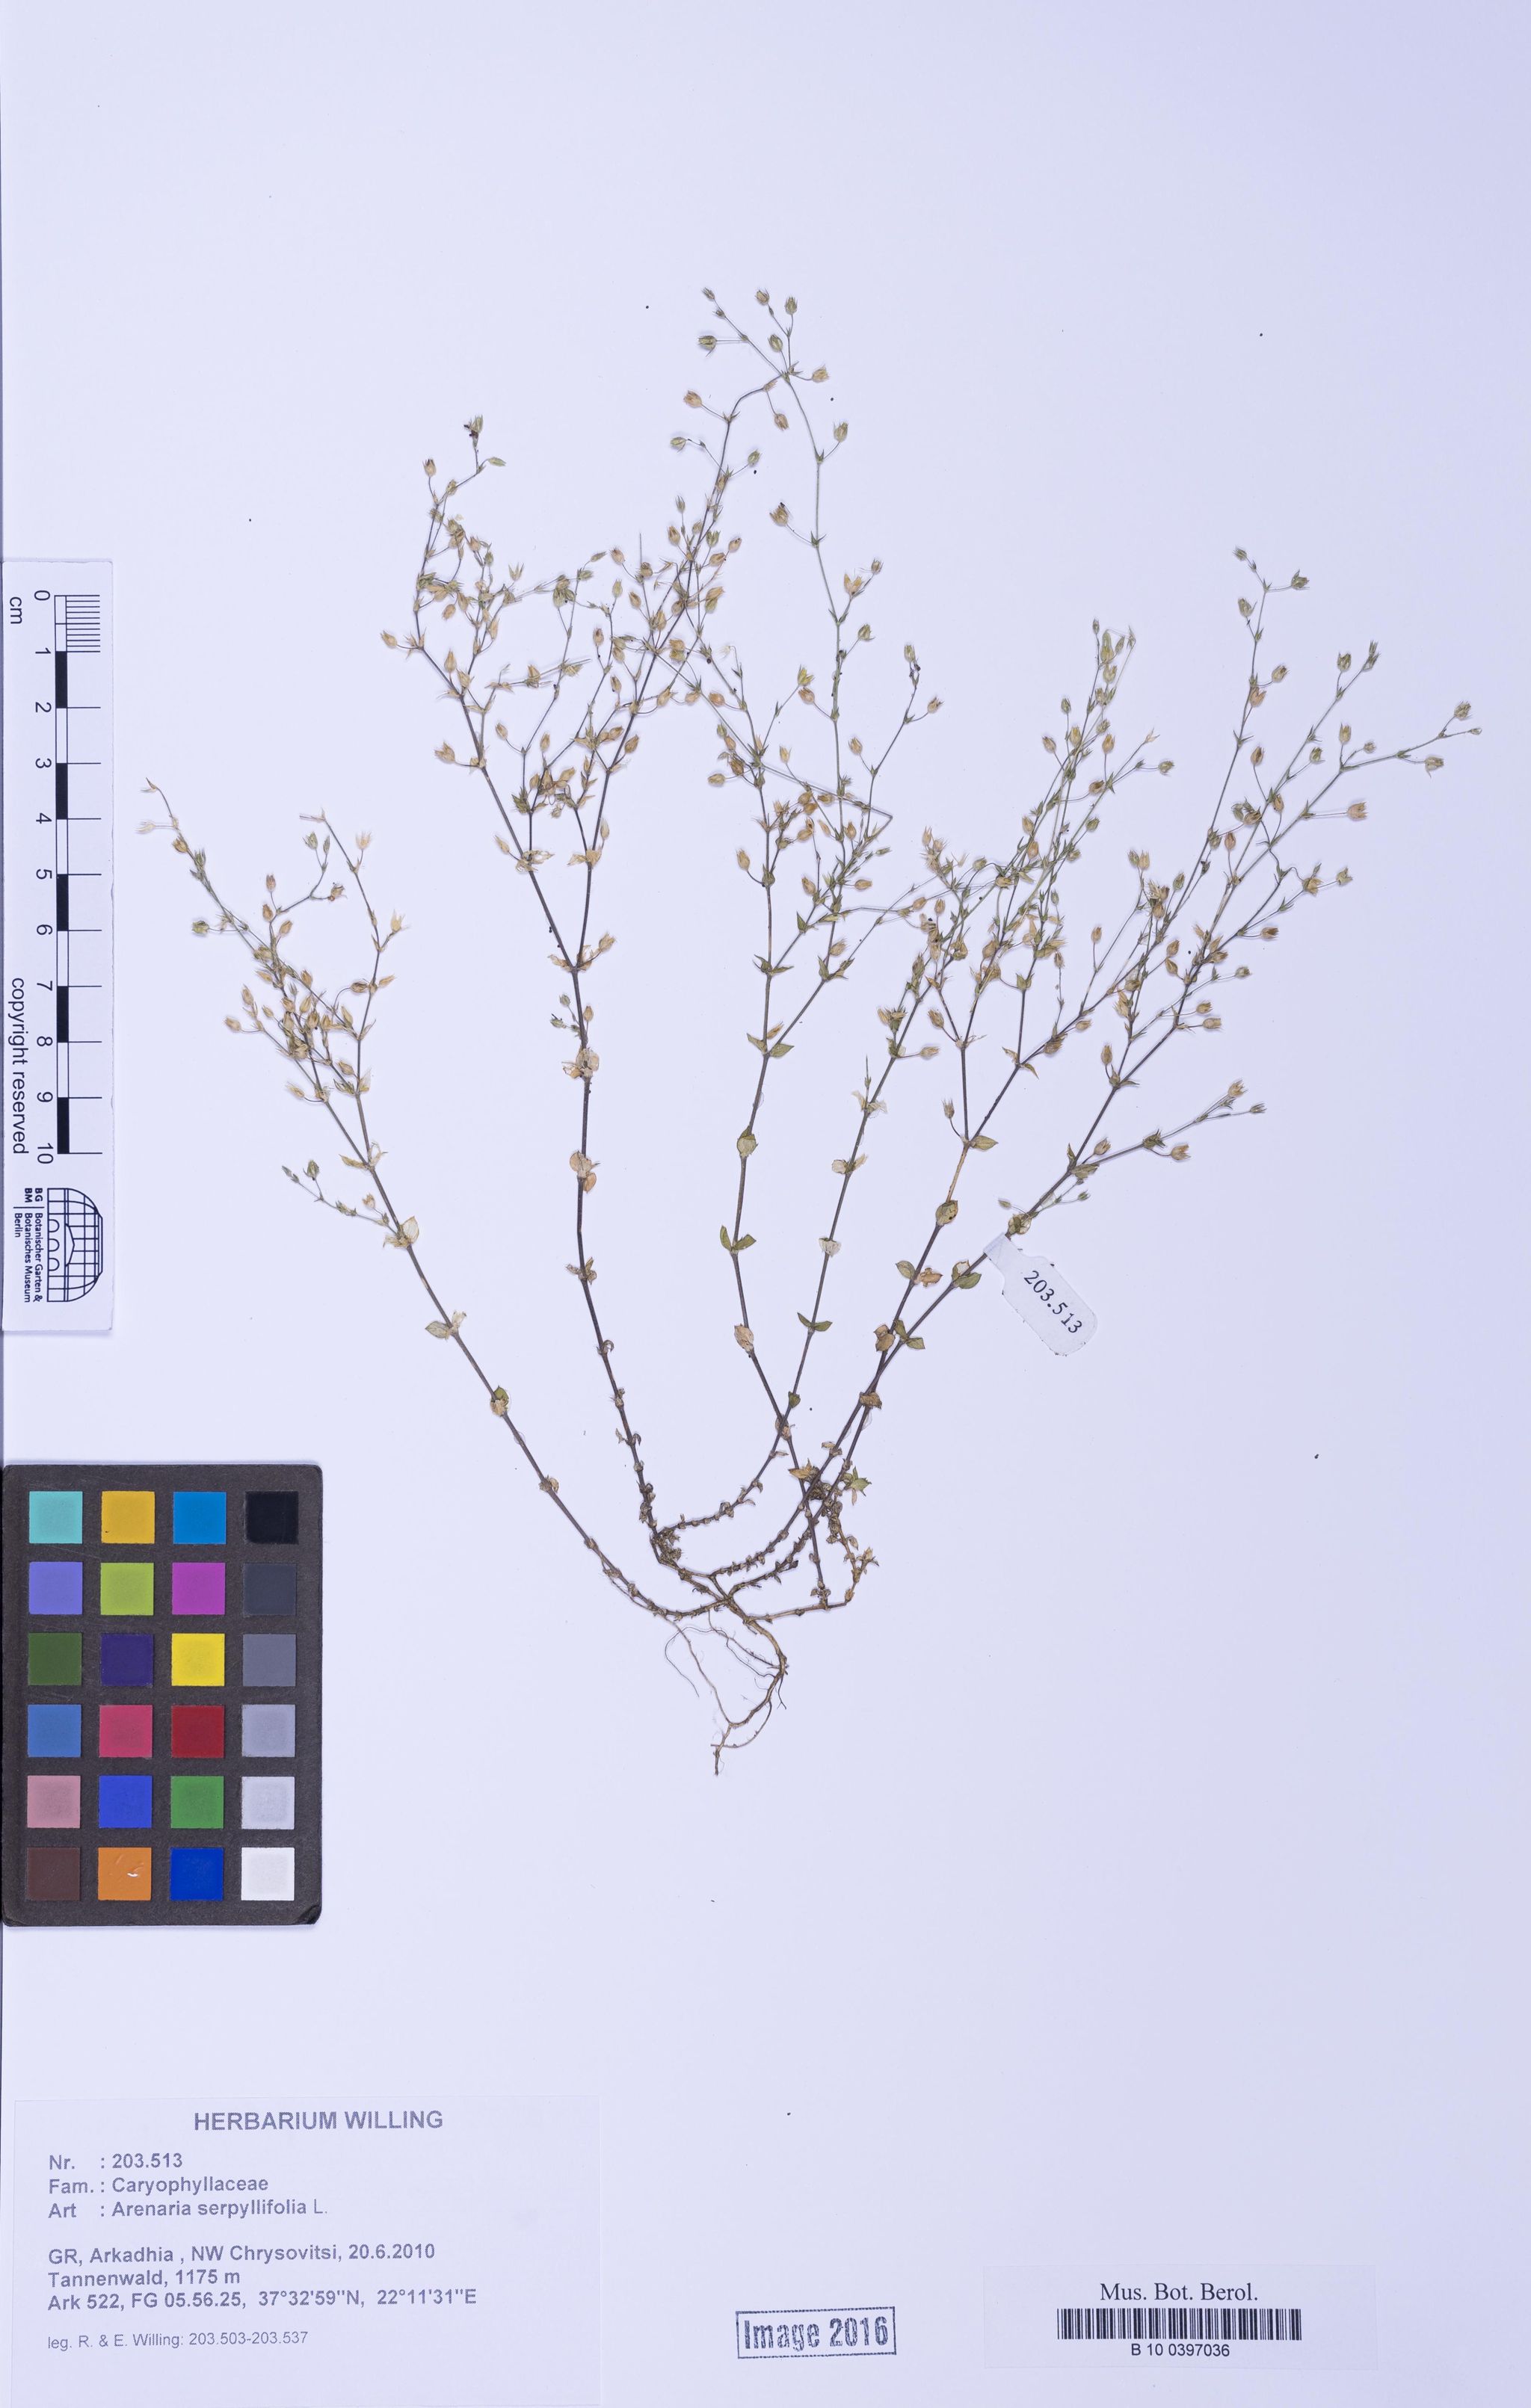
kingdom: Plantae
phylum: Tracheophyta
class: Magnoliopsida
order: Caryophyllales
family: Caryophyllaceae
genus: Arenaria
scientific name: Arenaria serpyllifolia
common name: Thyme-leaved sandwort
